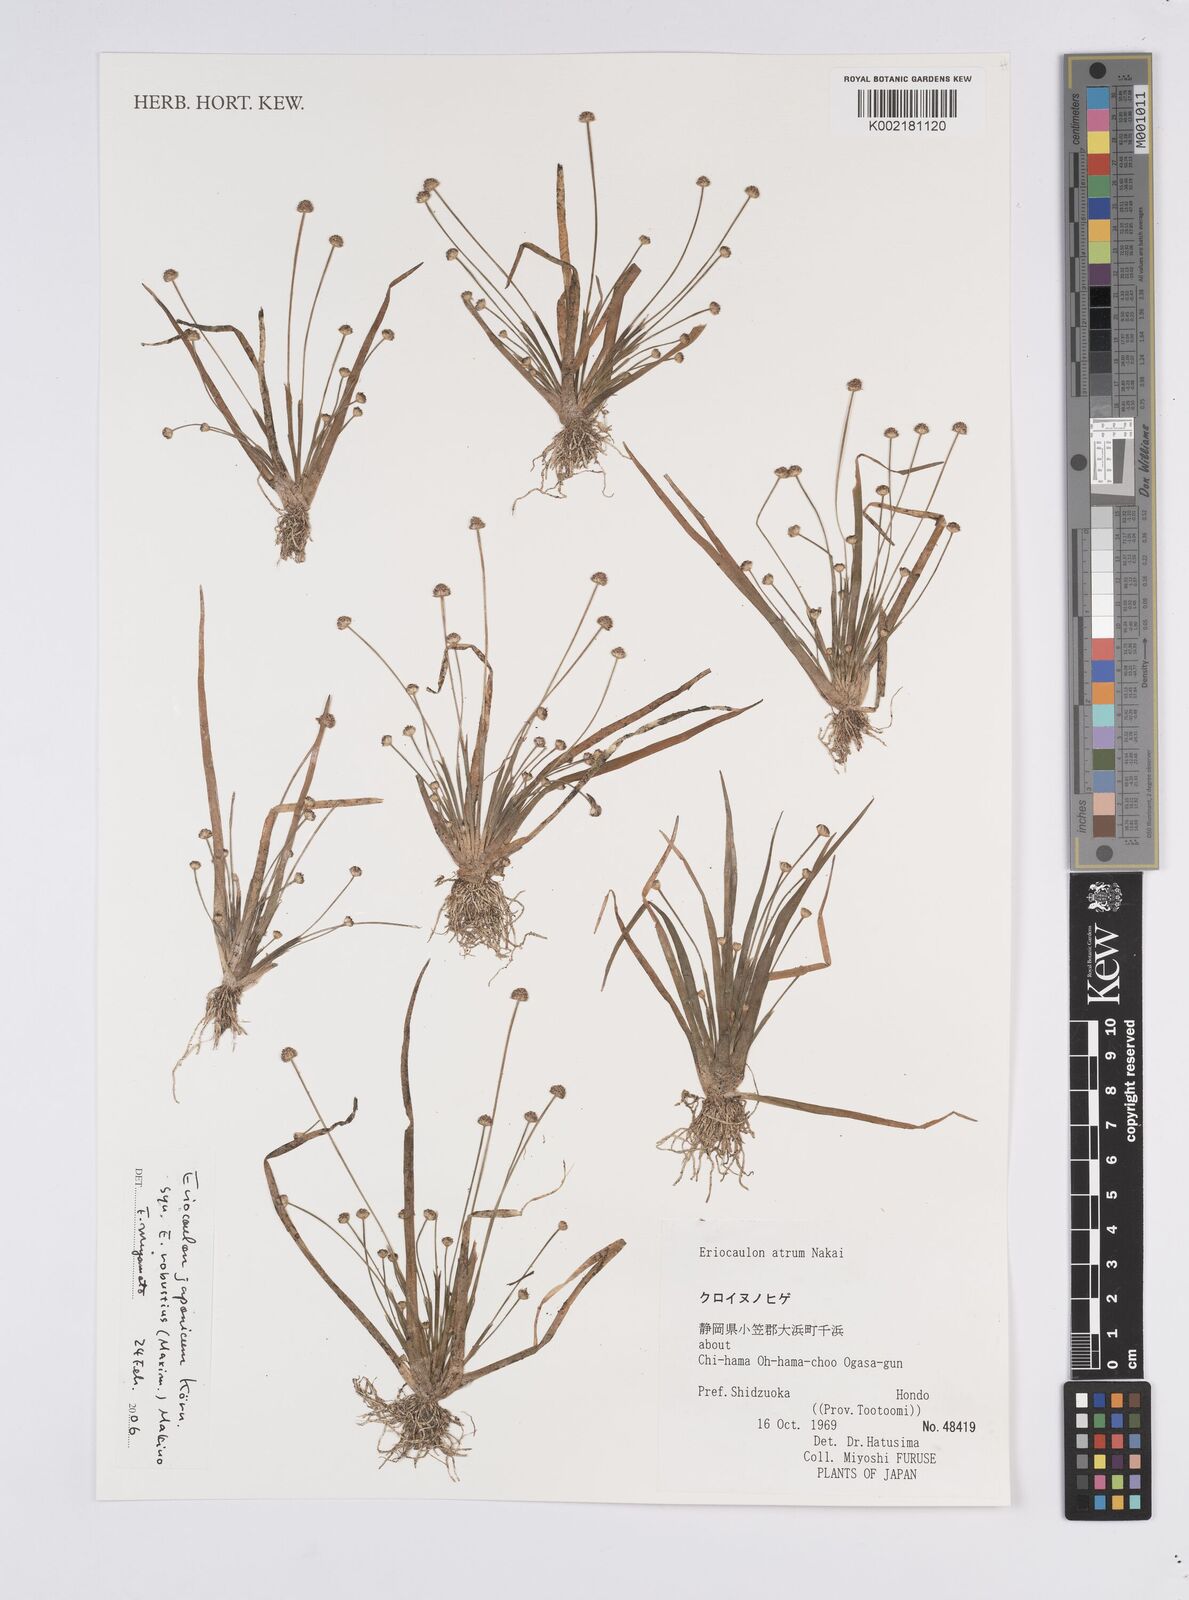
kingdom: Plantae
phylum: Tracheophyta
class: Liliopsida
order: Poales
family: Eriocaulaceae
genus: Eriocaulon
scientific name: Eriocaulon atrum
